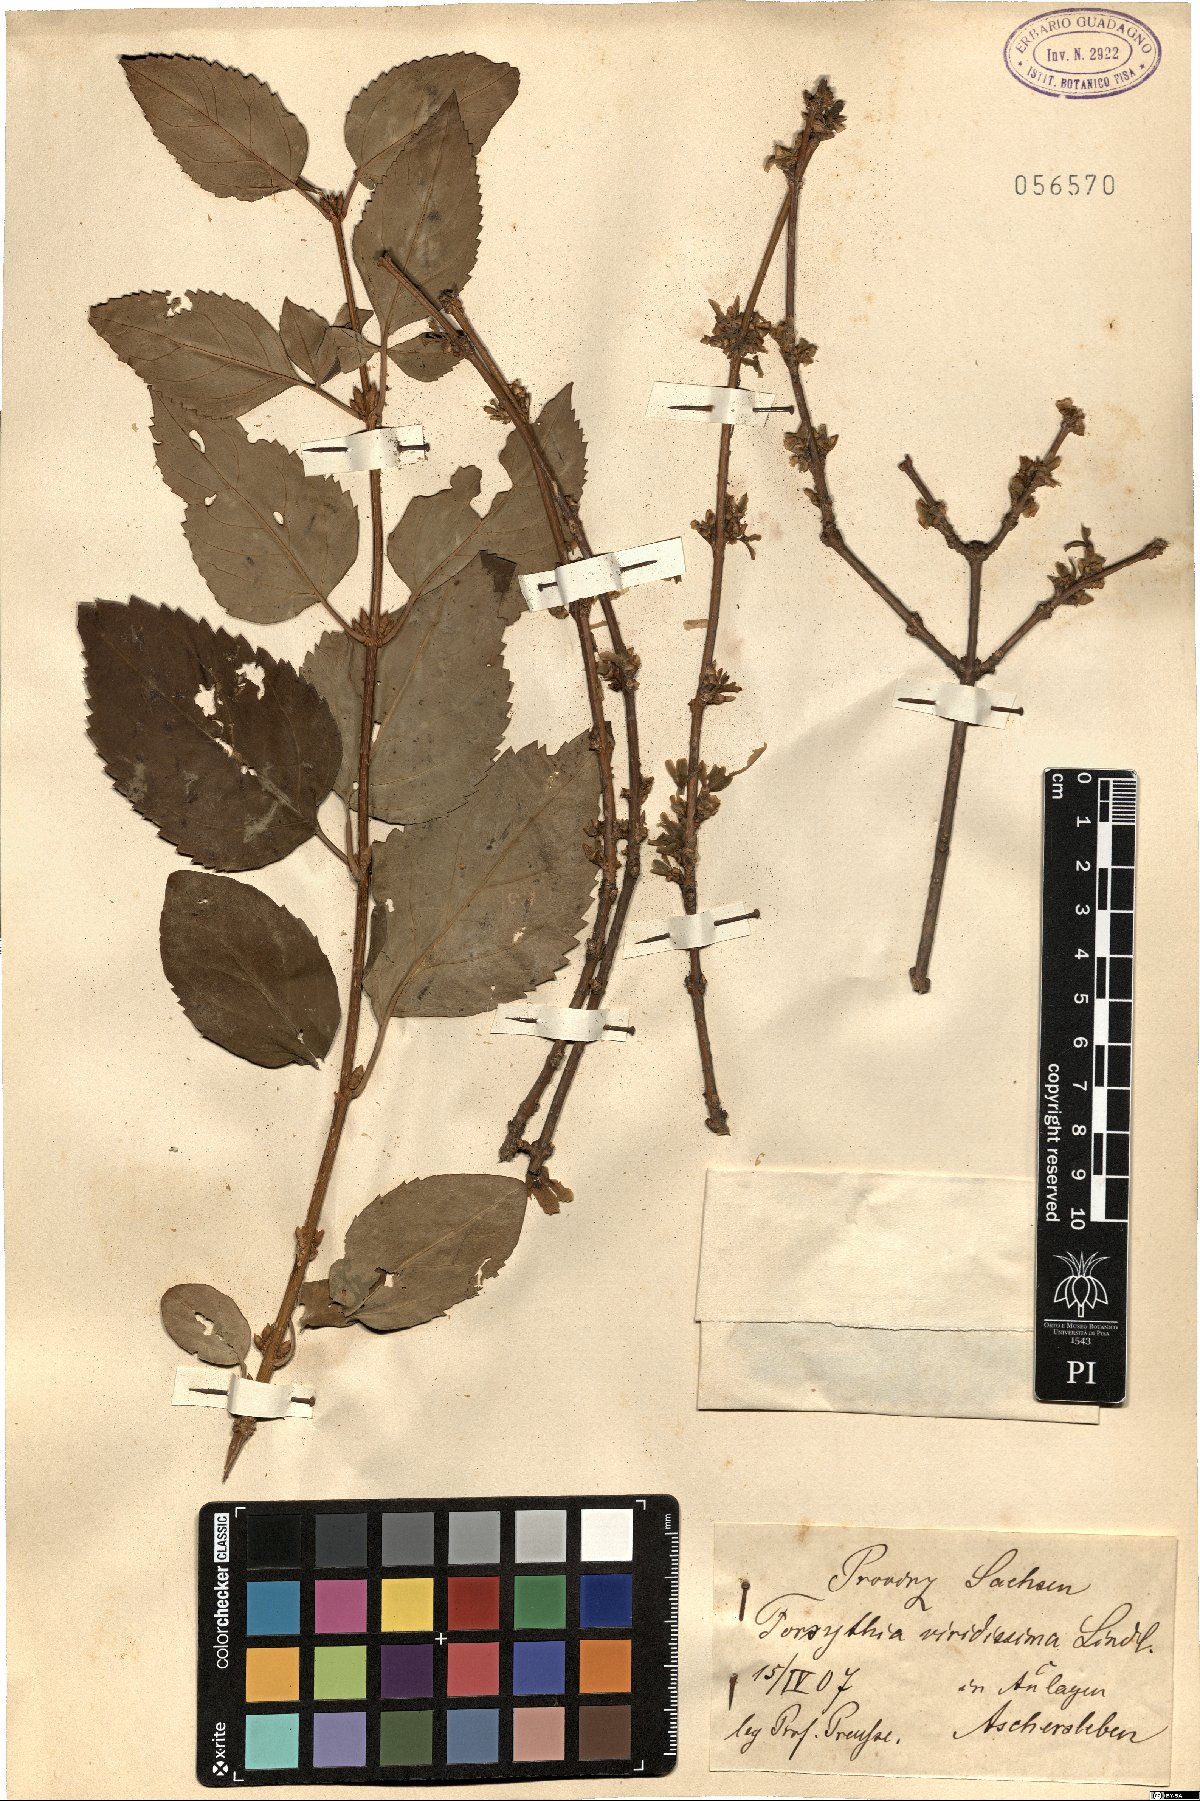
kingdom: Plantae
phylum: Tracheophyta
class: Magnoliopsida
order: Lamiales
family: Oleaceae
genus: Forsythia
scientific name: Forsythia viridissima
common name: Greenstem forsythia
